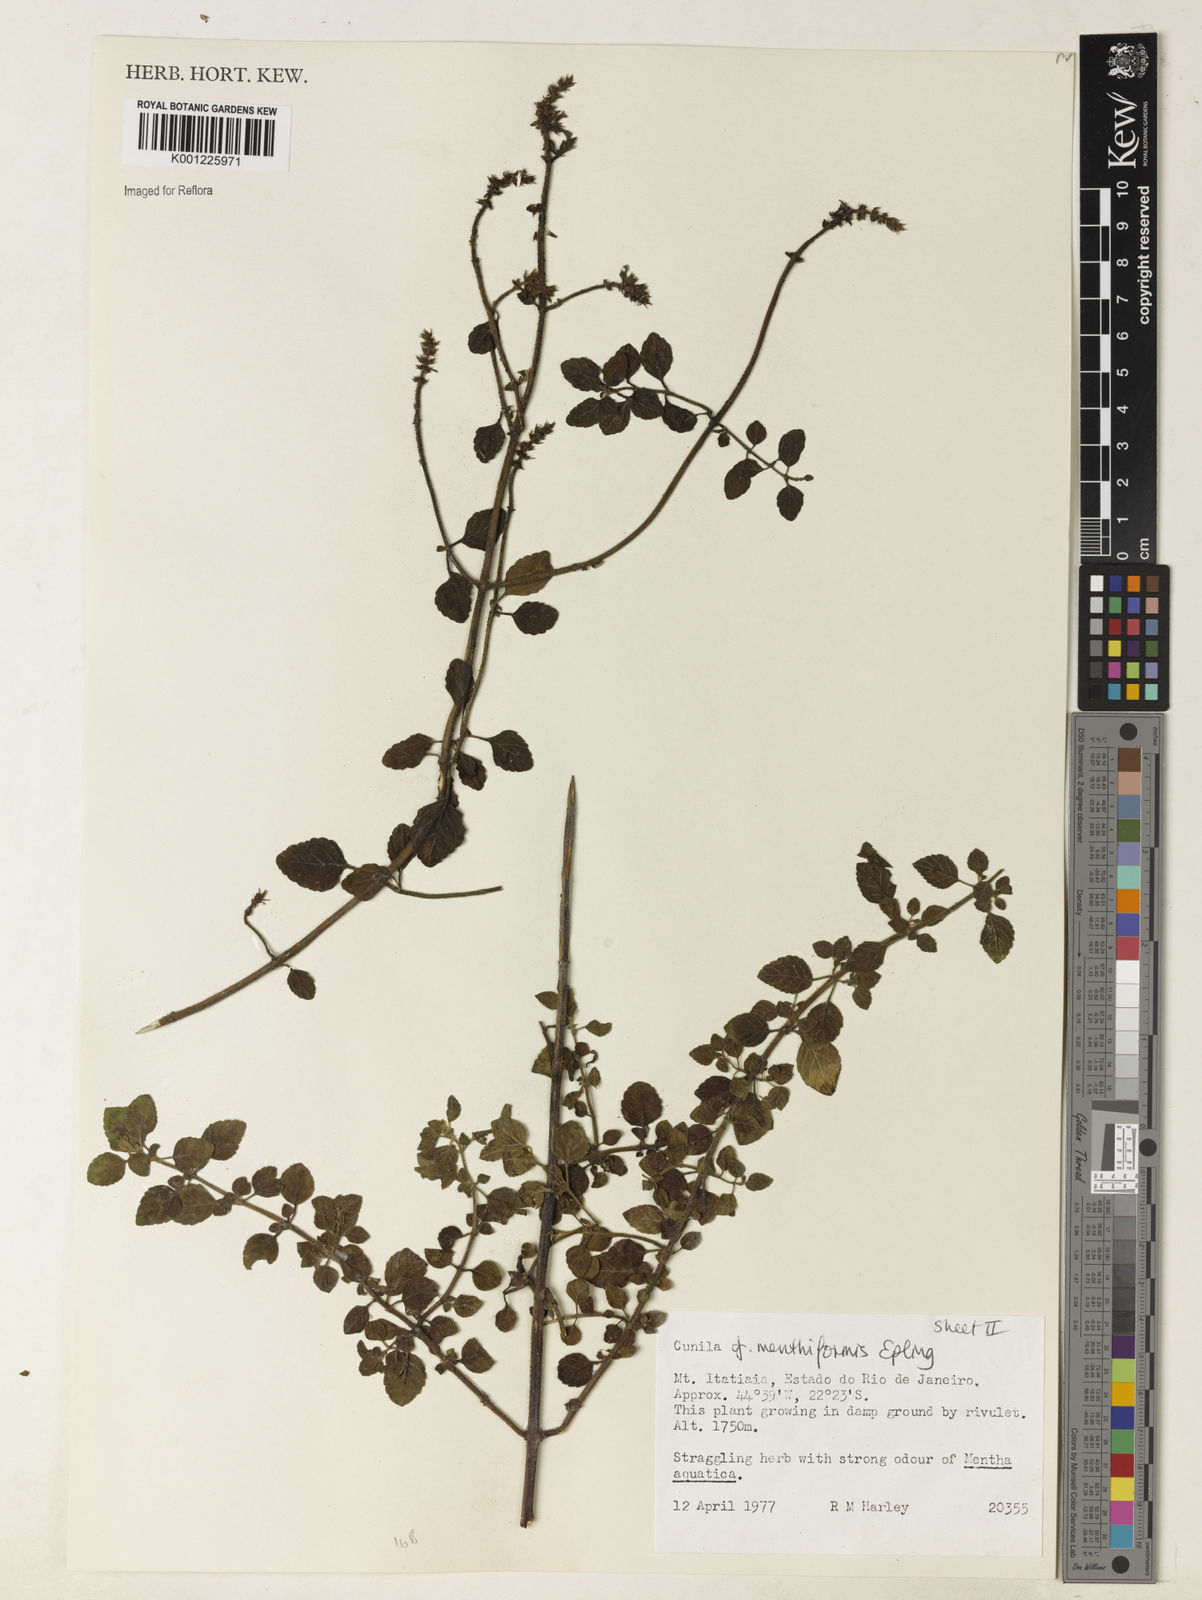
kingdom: Plantae
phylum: Tracheophyta
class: Magnoliopsida
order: Lamiales
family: Lamiaceae
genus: Cunila
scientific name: Cunila menthiformis
